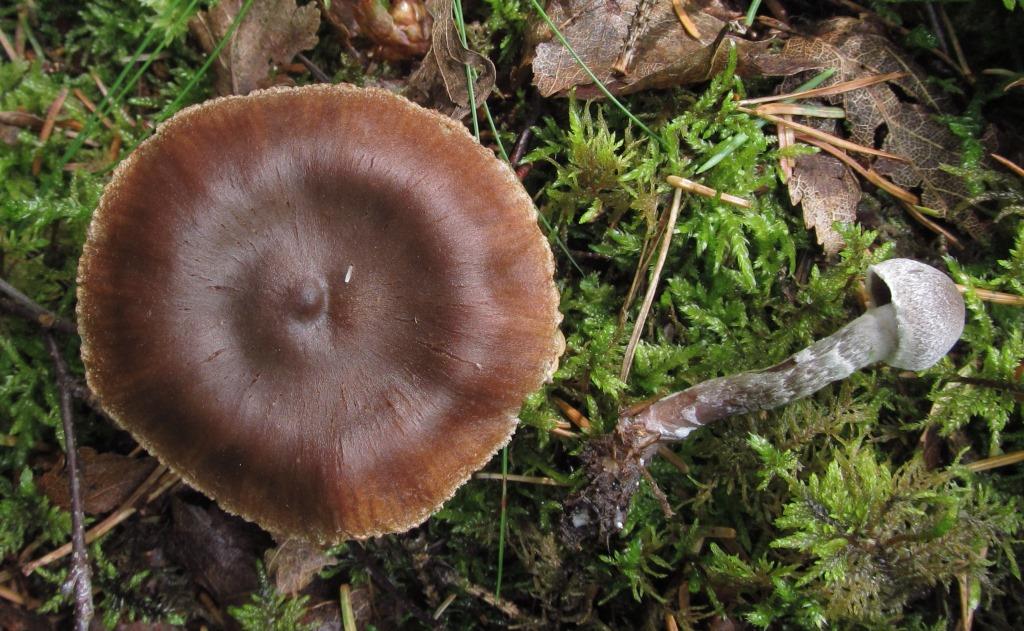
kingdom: Fungi
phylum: Basidiomycota
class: Agaricomycetes
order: Agaricales
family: Cortinariaceae
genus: Cortinarius
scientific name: Cortinarius flabellus
